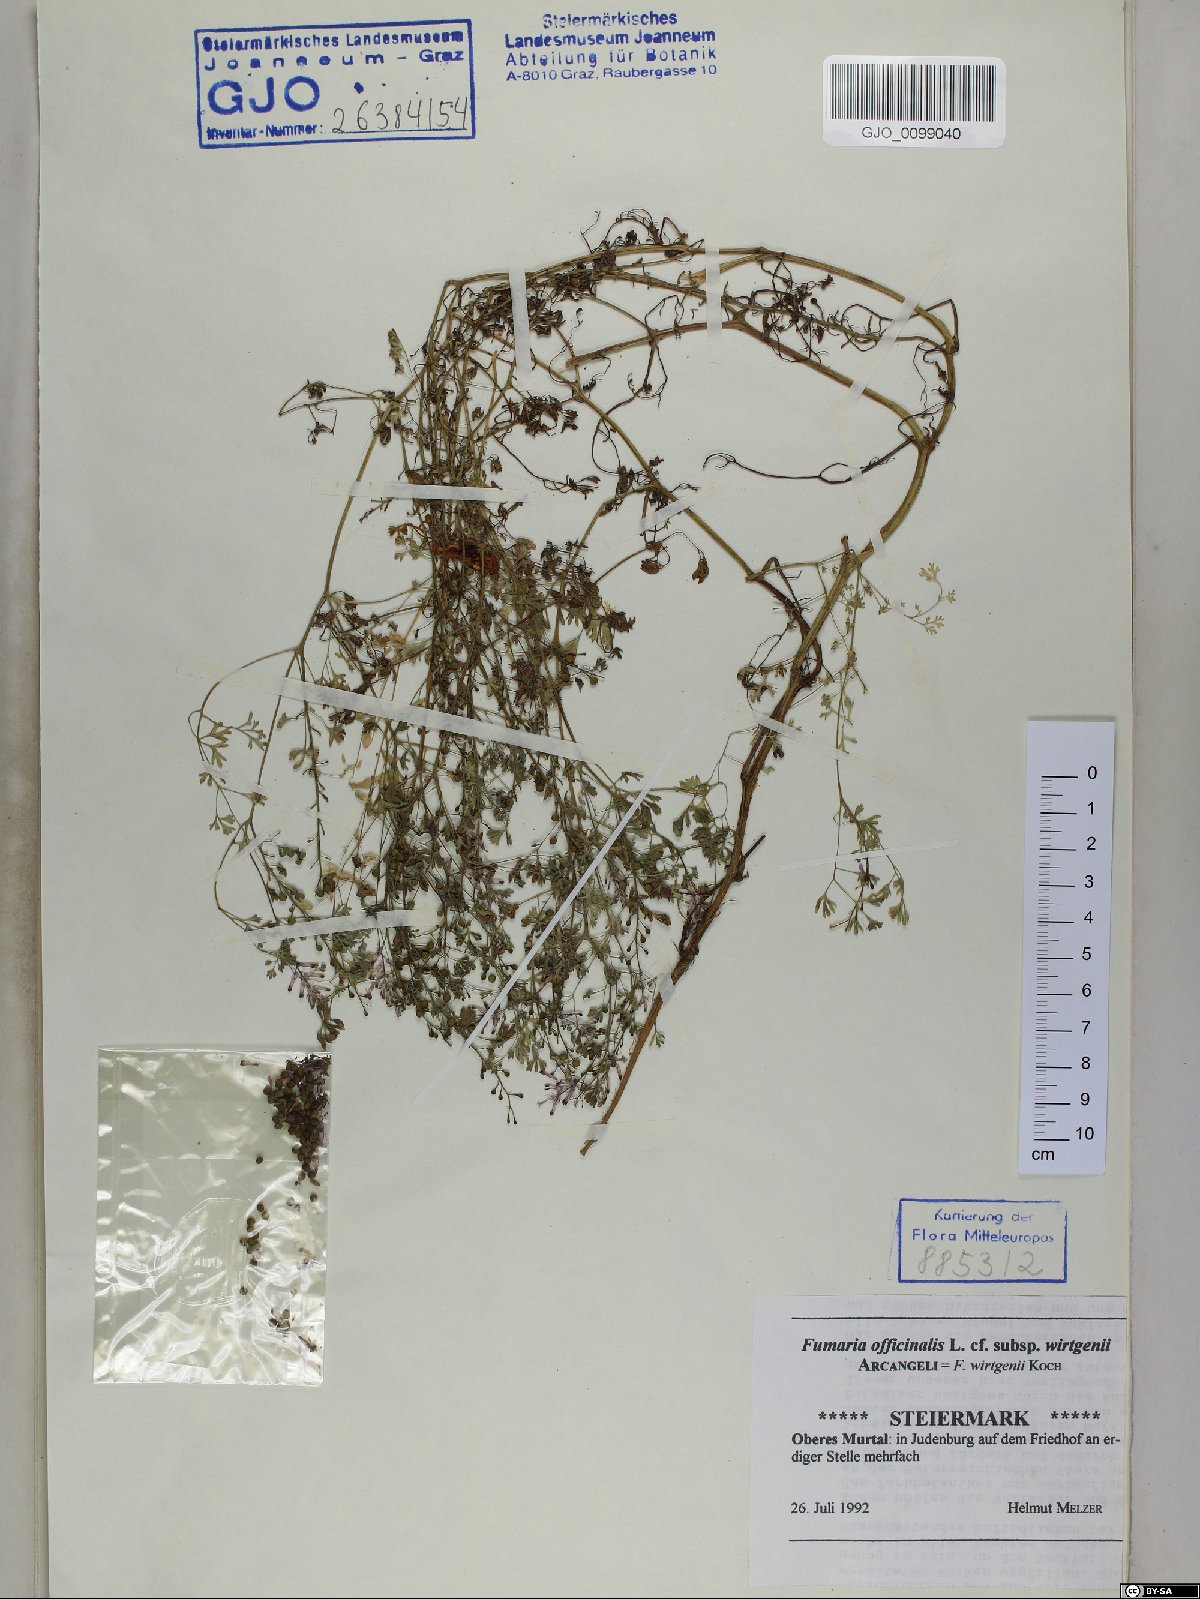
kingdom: Plantae
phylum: Tracheophyta
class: Magnoliopsida
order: Ranunculales
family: Papaveraceae
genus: Fumaria
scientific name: Fumaria wirtgenii
